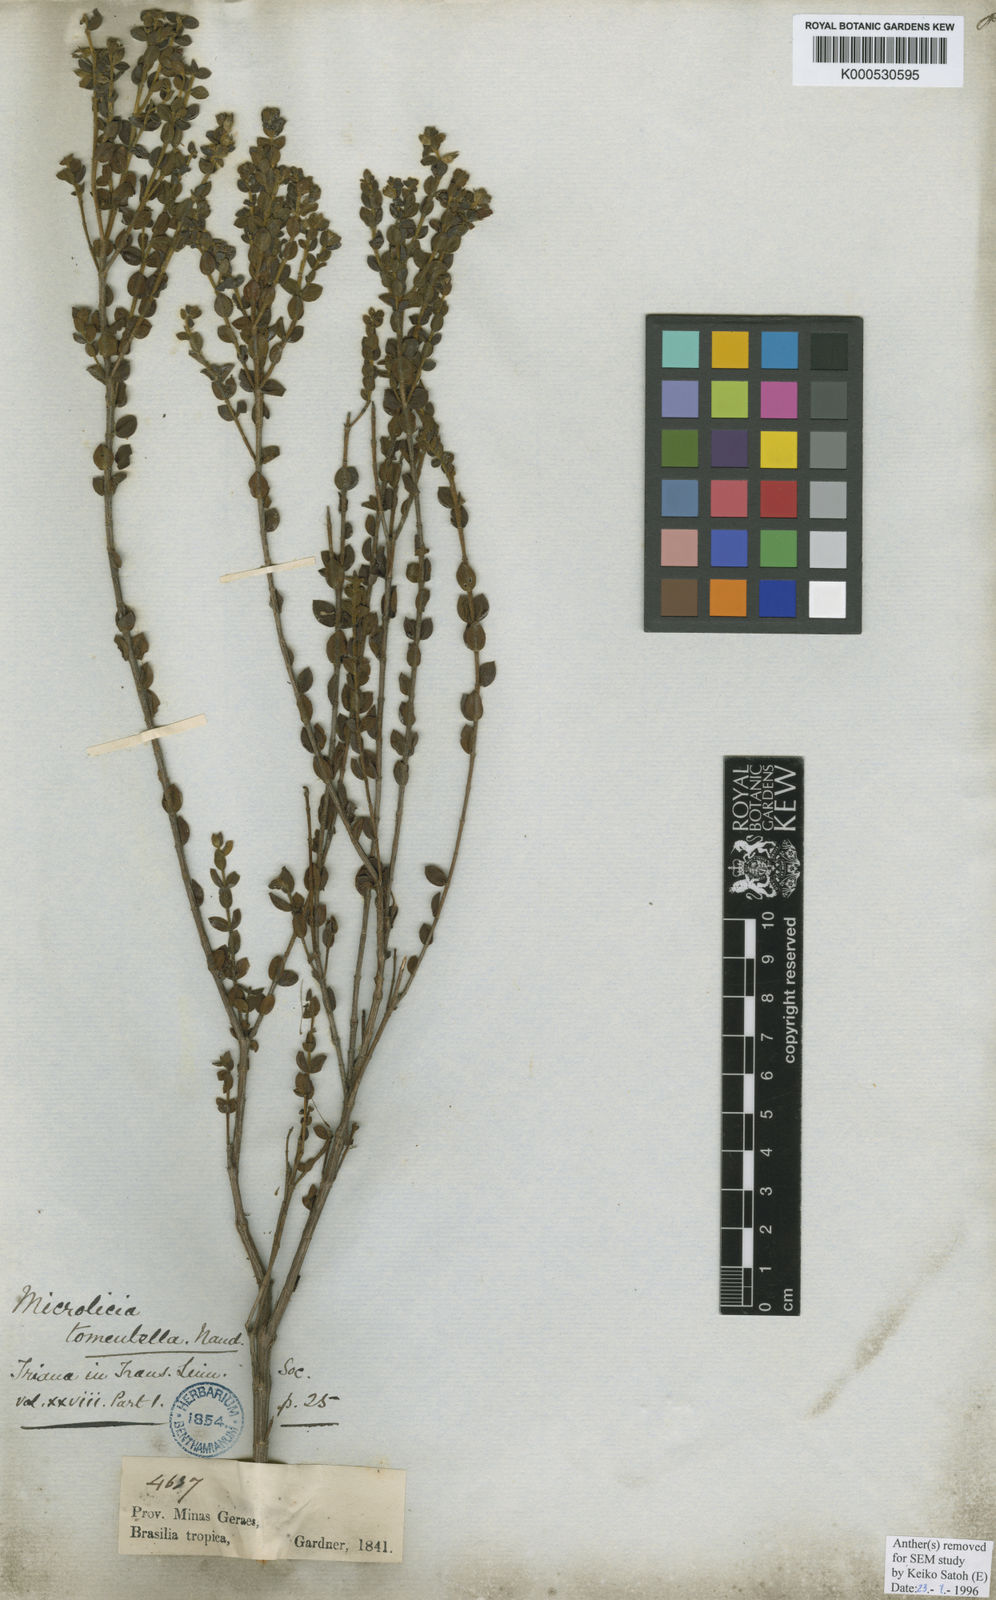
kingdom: Plantae
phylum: Tracheophyta
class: Magnoliopsida
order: Myrtales
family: Melastomataceae
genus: Microlicia
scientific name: Microlicia tomentella
